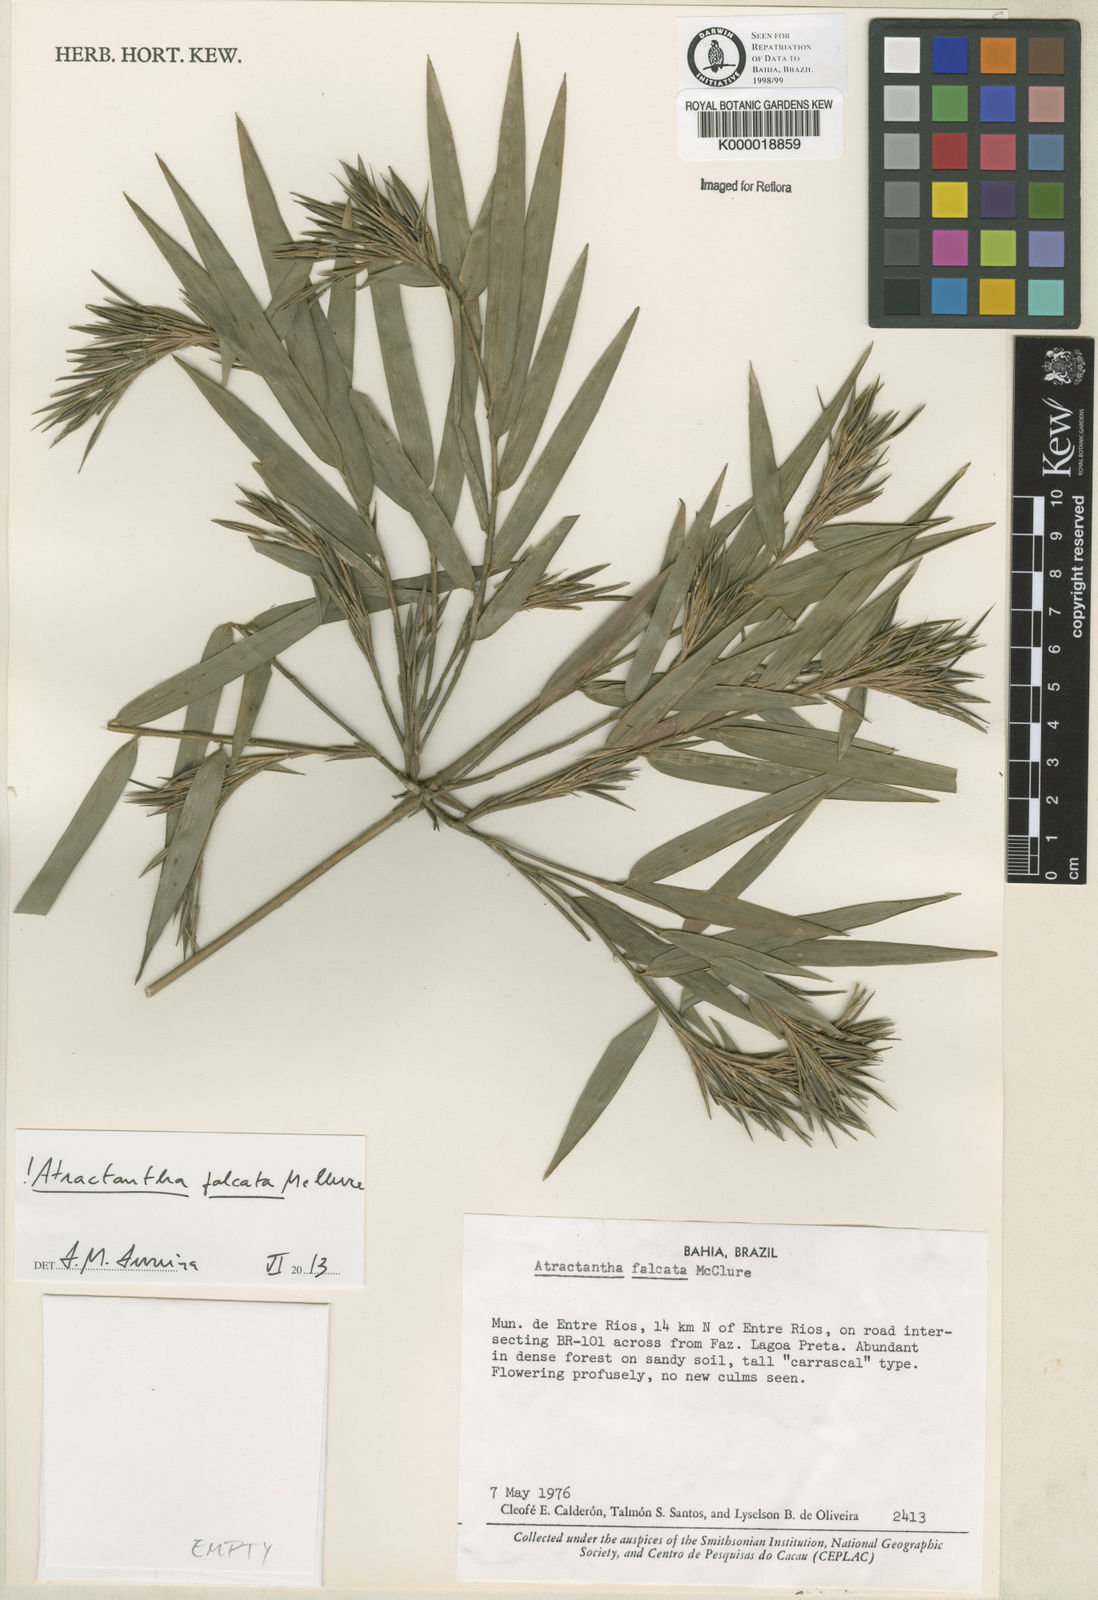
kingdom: Plantae
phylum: Tracheophyta
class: Liliopsida
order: Poales
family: Poaceae
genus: Atractantha
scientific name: Atractantha falcata
